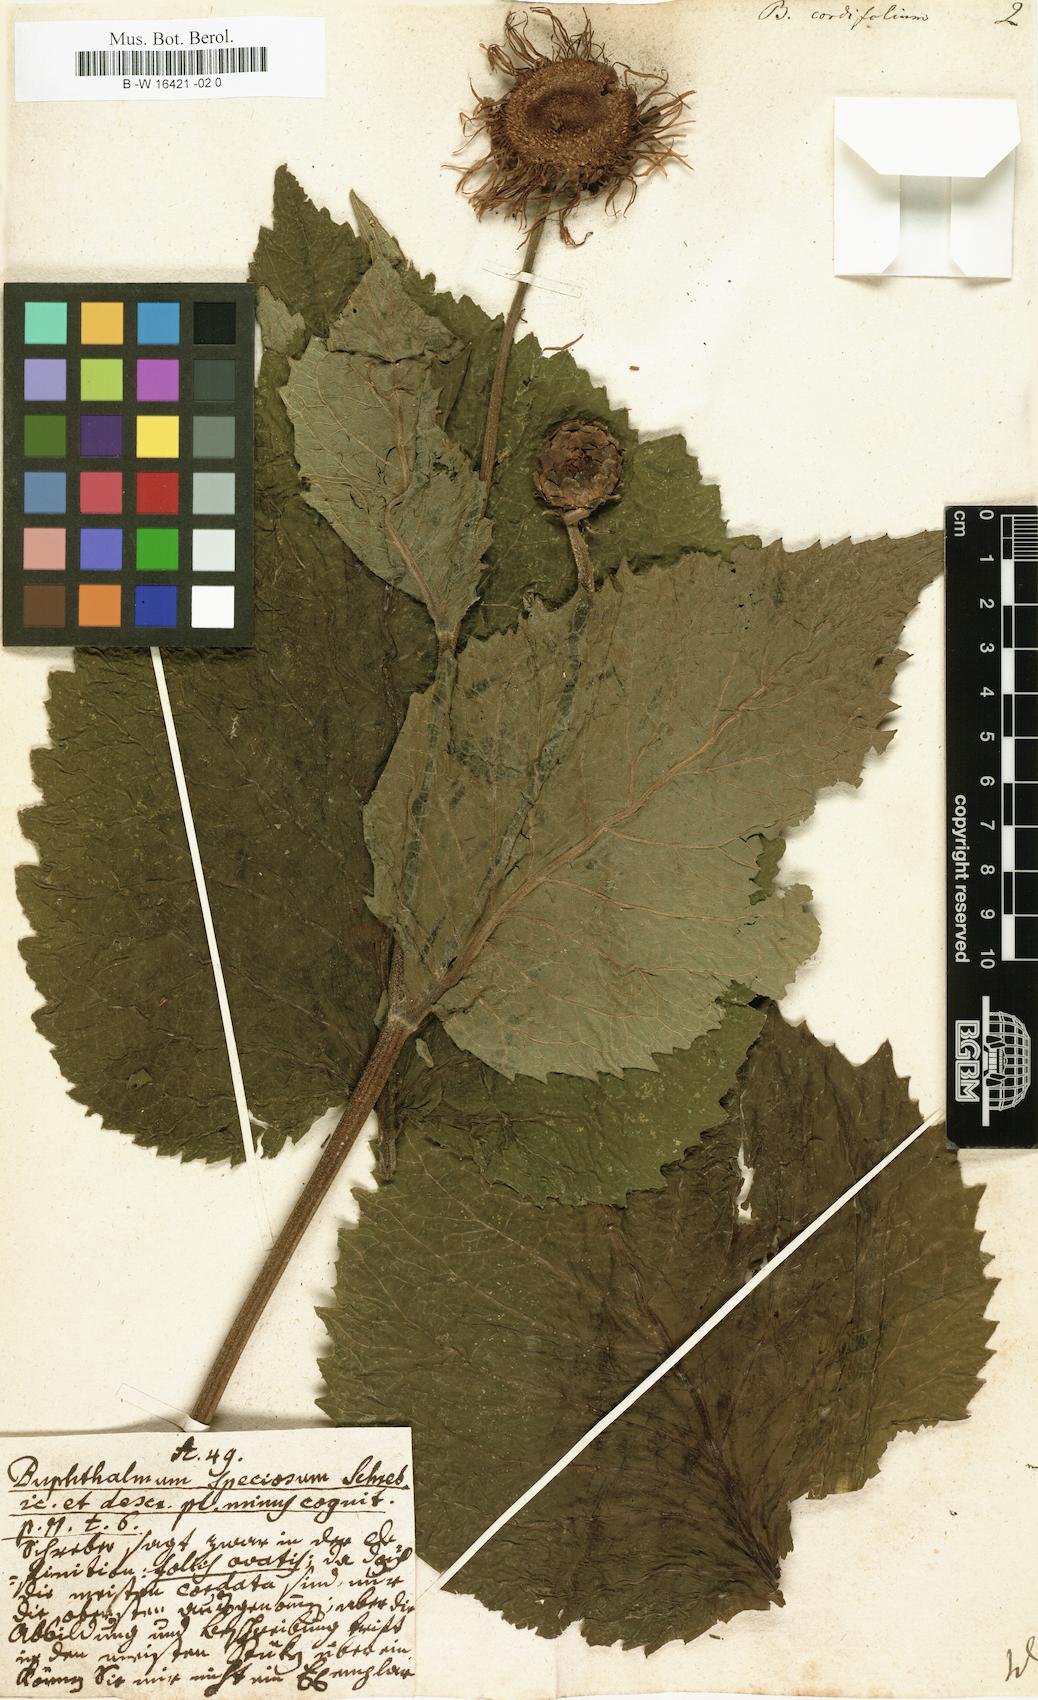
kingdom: Plantae
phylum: Tracheophyta
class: Magnoliopsida
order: Asterales
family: Asteraceae
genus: Telekia
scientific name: Telekia speciosa
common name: Yellow oxeye
